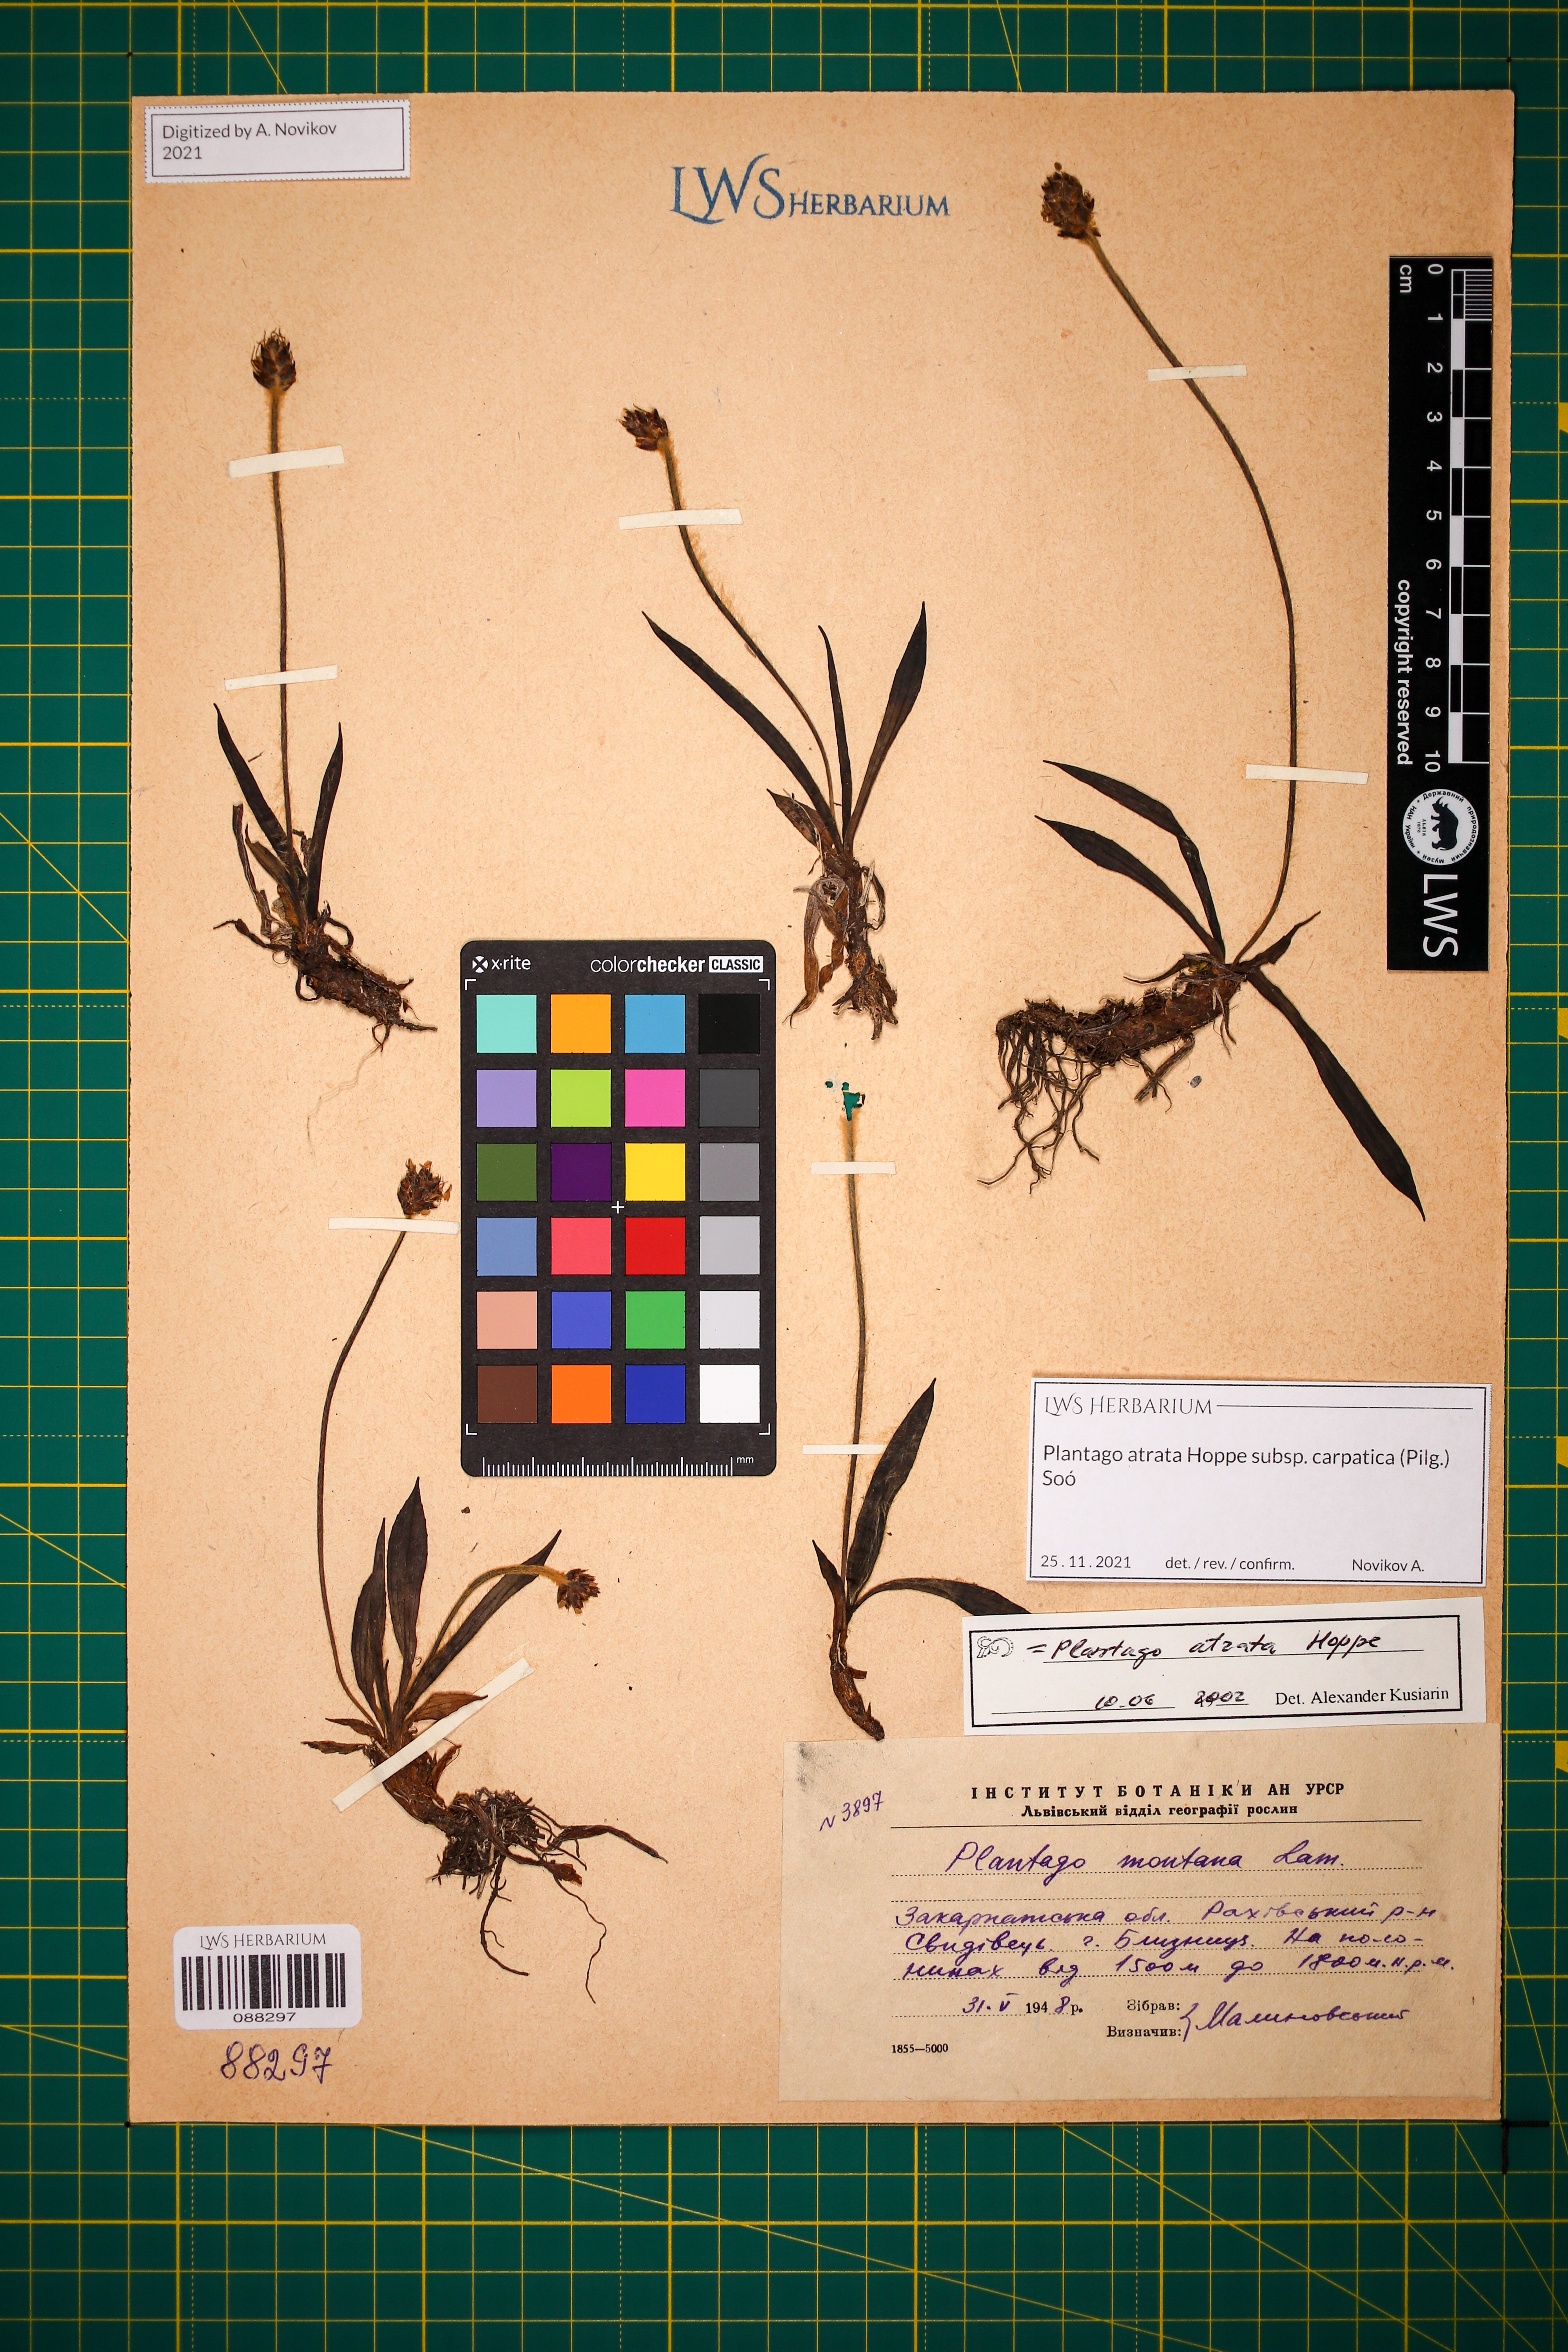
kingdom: Plantae
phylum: Tracheophyta
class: Magnoliopsida
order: Lamiales
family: Plantaginaceae
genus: Plantago
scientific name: Plantago atrata
